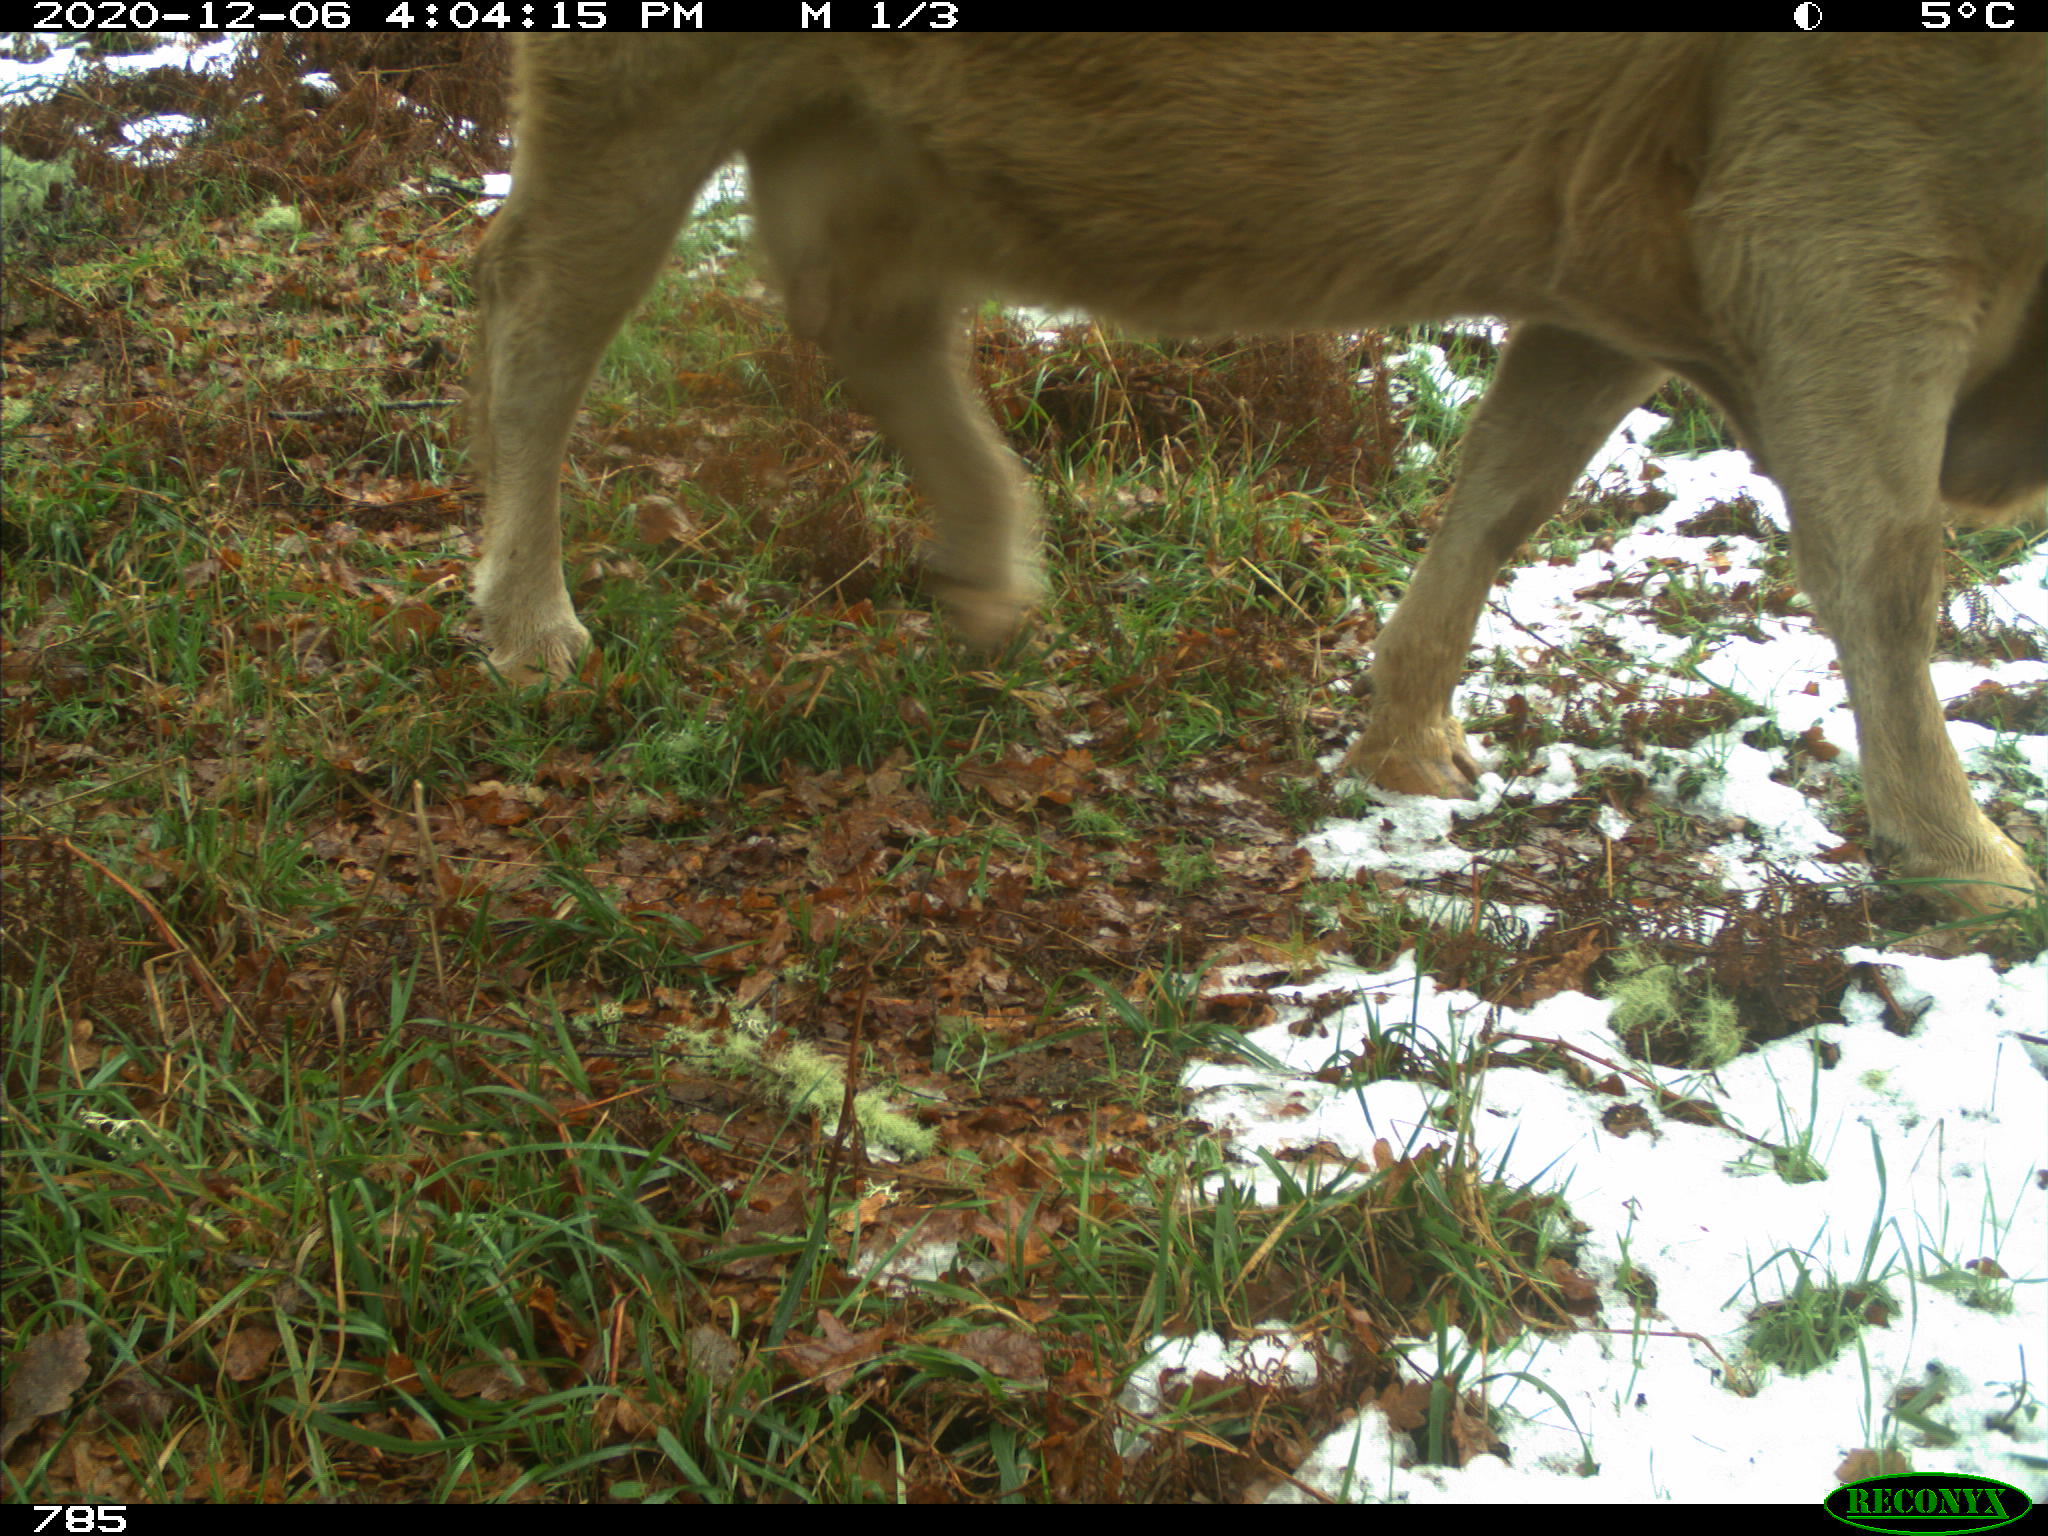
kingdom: Animalia
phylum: Chordata
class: Mammalia
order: Artiodactyla
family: Bovidae
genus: Bos
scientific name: Bos taurus
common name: Domesticated cattle
